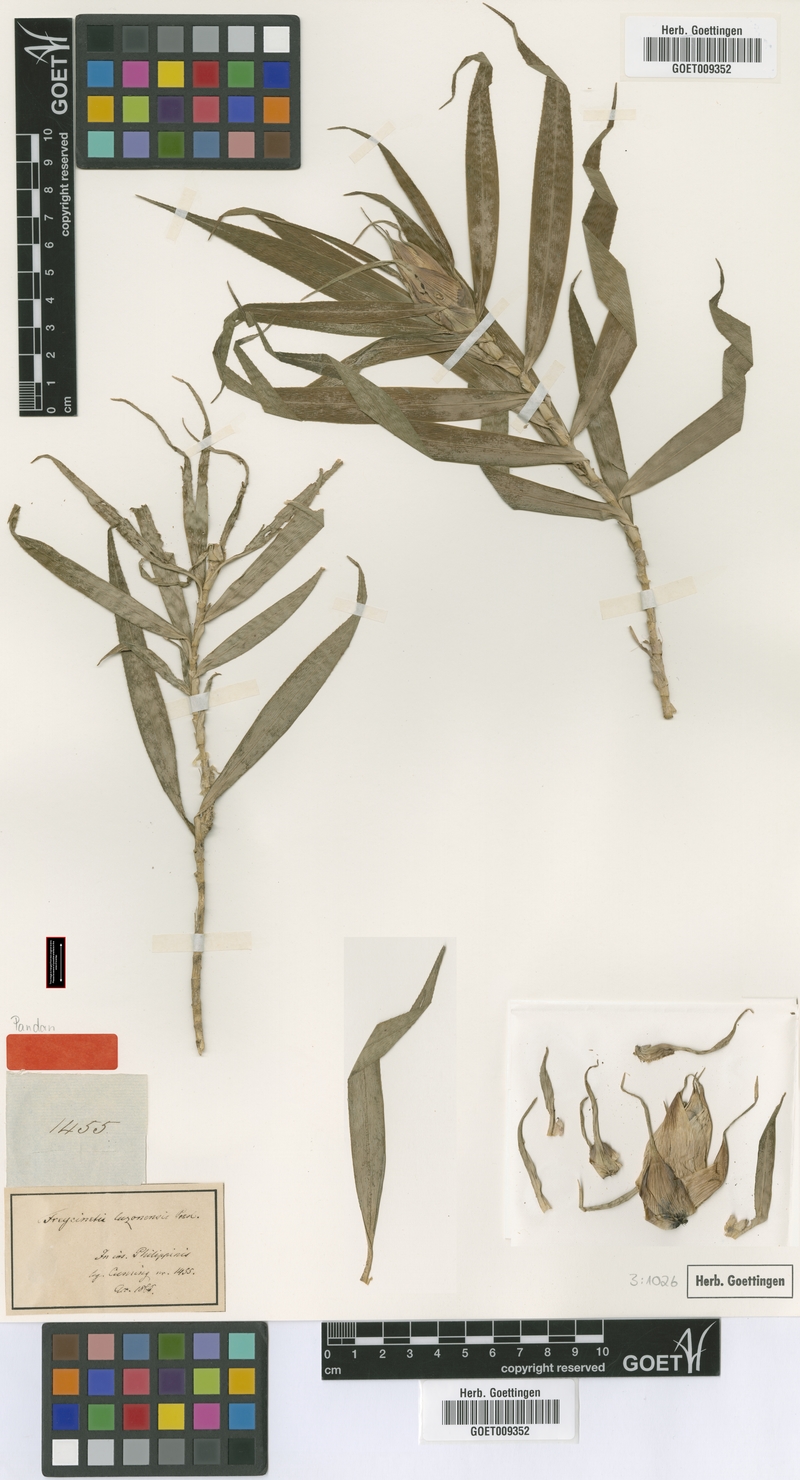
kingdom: Plantae
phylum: Tracheophyta
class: Liliopsida
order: Pandanales
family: Pandanaceae
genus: Freycinetia
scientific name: Freycinetia cumingiana
